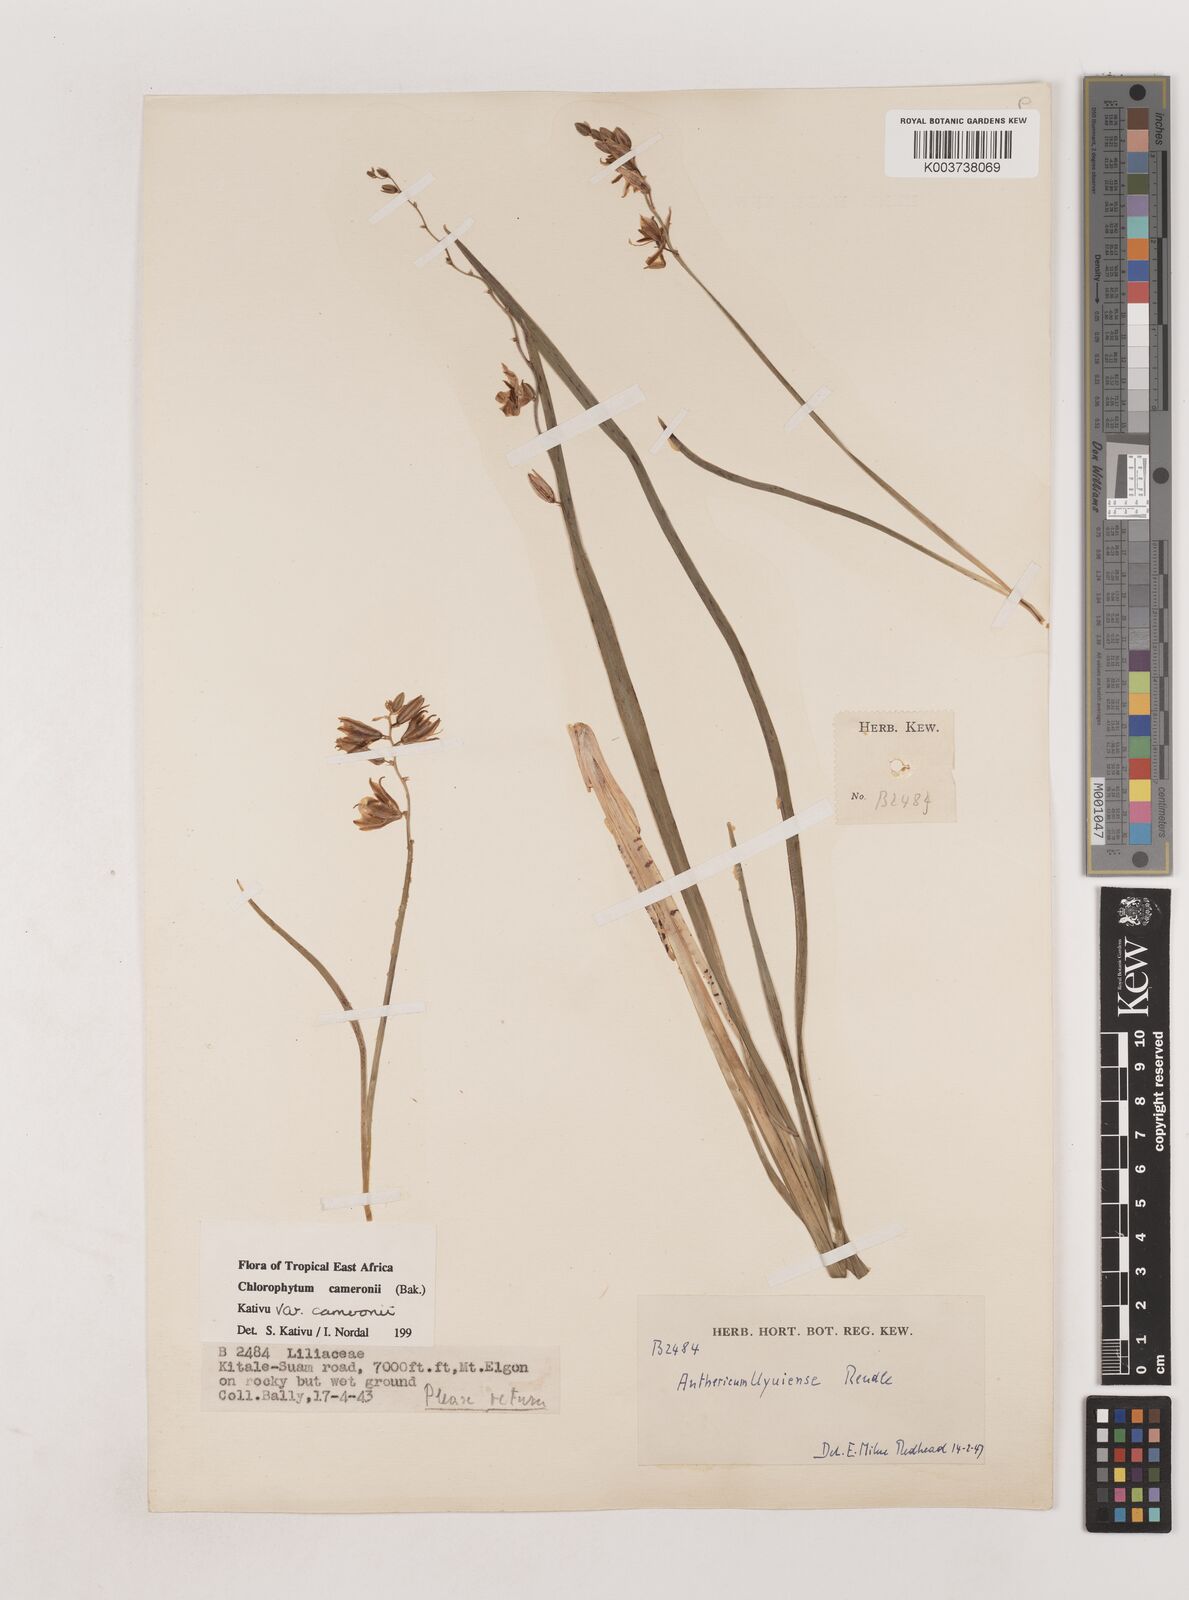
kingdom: Plantae
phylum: Tracheophyta
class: Liliopsida
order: Asparagales
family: Asparagaceae
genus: Chlorophytum
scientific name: Chlorophytum cameronii
